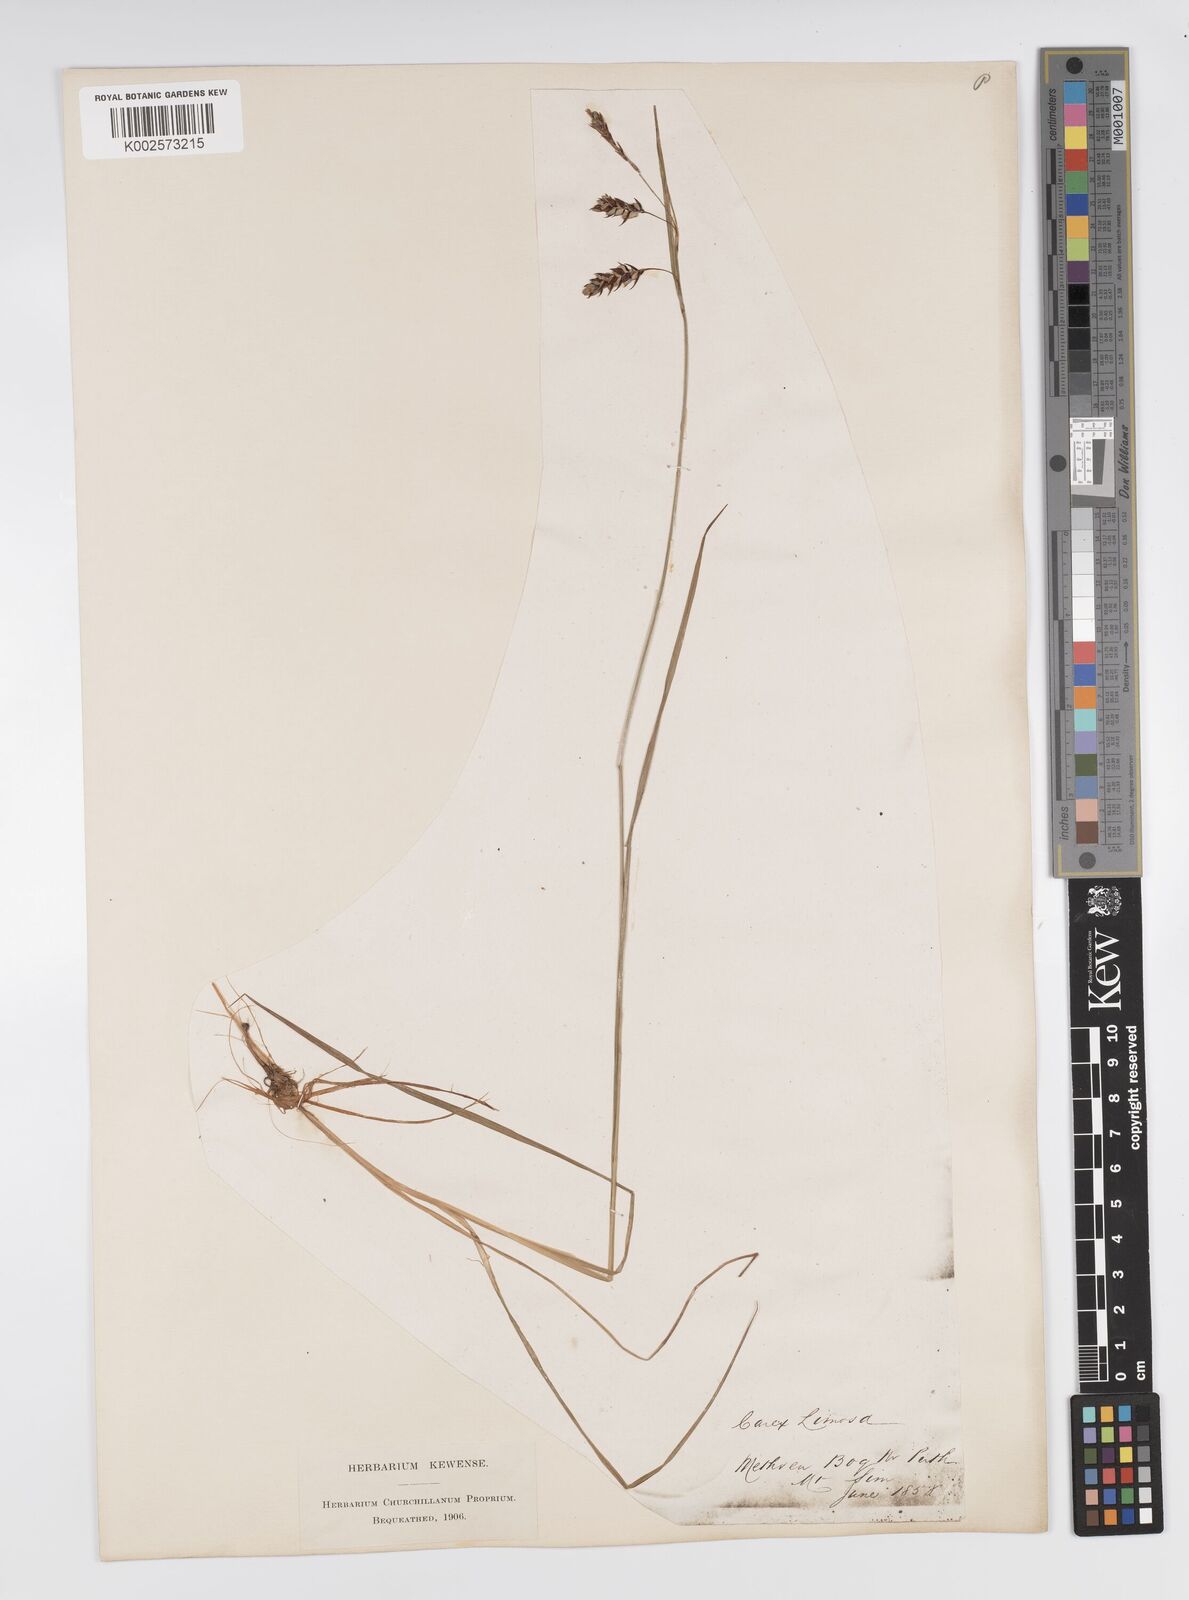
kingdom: Plantae
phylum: Tracheophyta
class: Liliopsida
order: Poales
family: Cyperaceae
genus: Carex
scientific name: Carex magellanica
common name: Bog sedge
